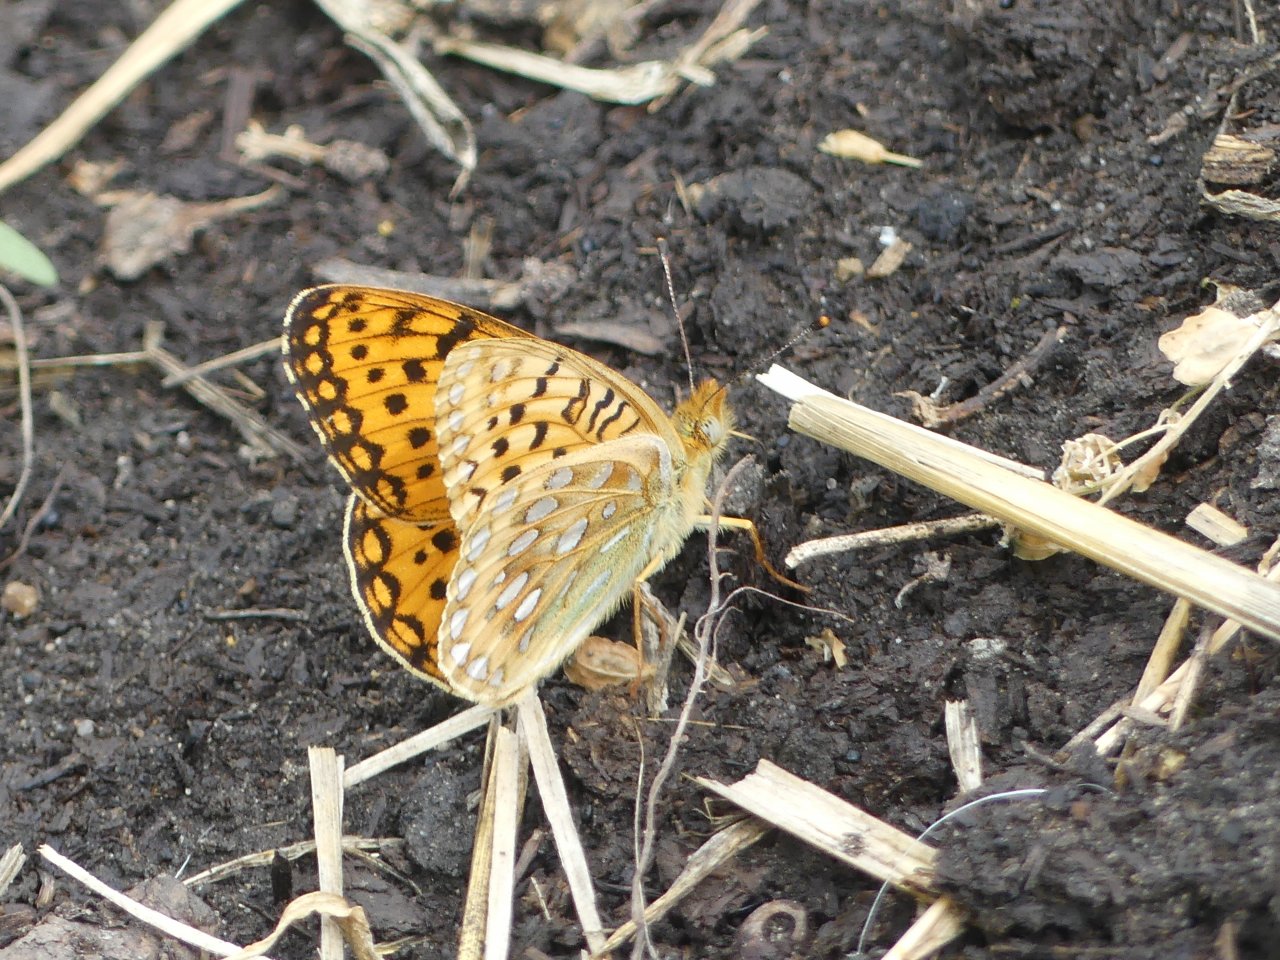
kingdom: Animalia
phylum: Arthropoda
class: Insecta
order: Lepidoptera
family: Nymphalidae
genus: Speyeria
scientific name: Speyeria atlantis
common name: Northwestern Fritillary
